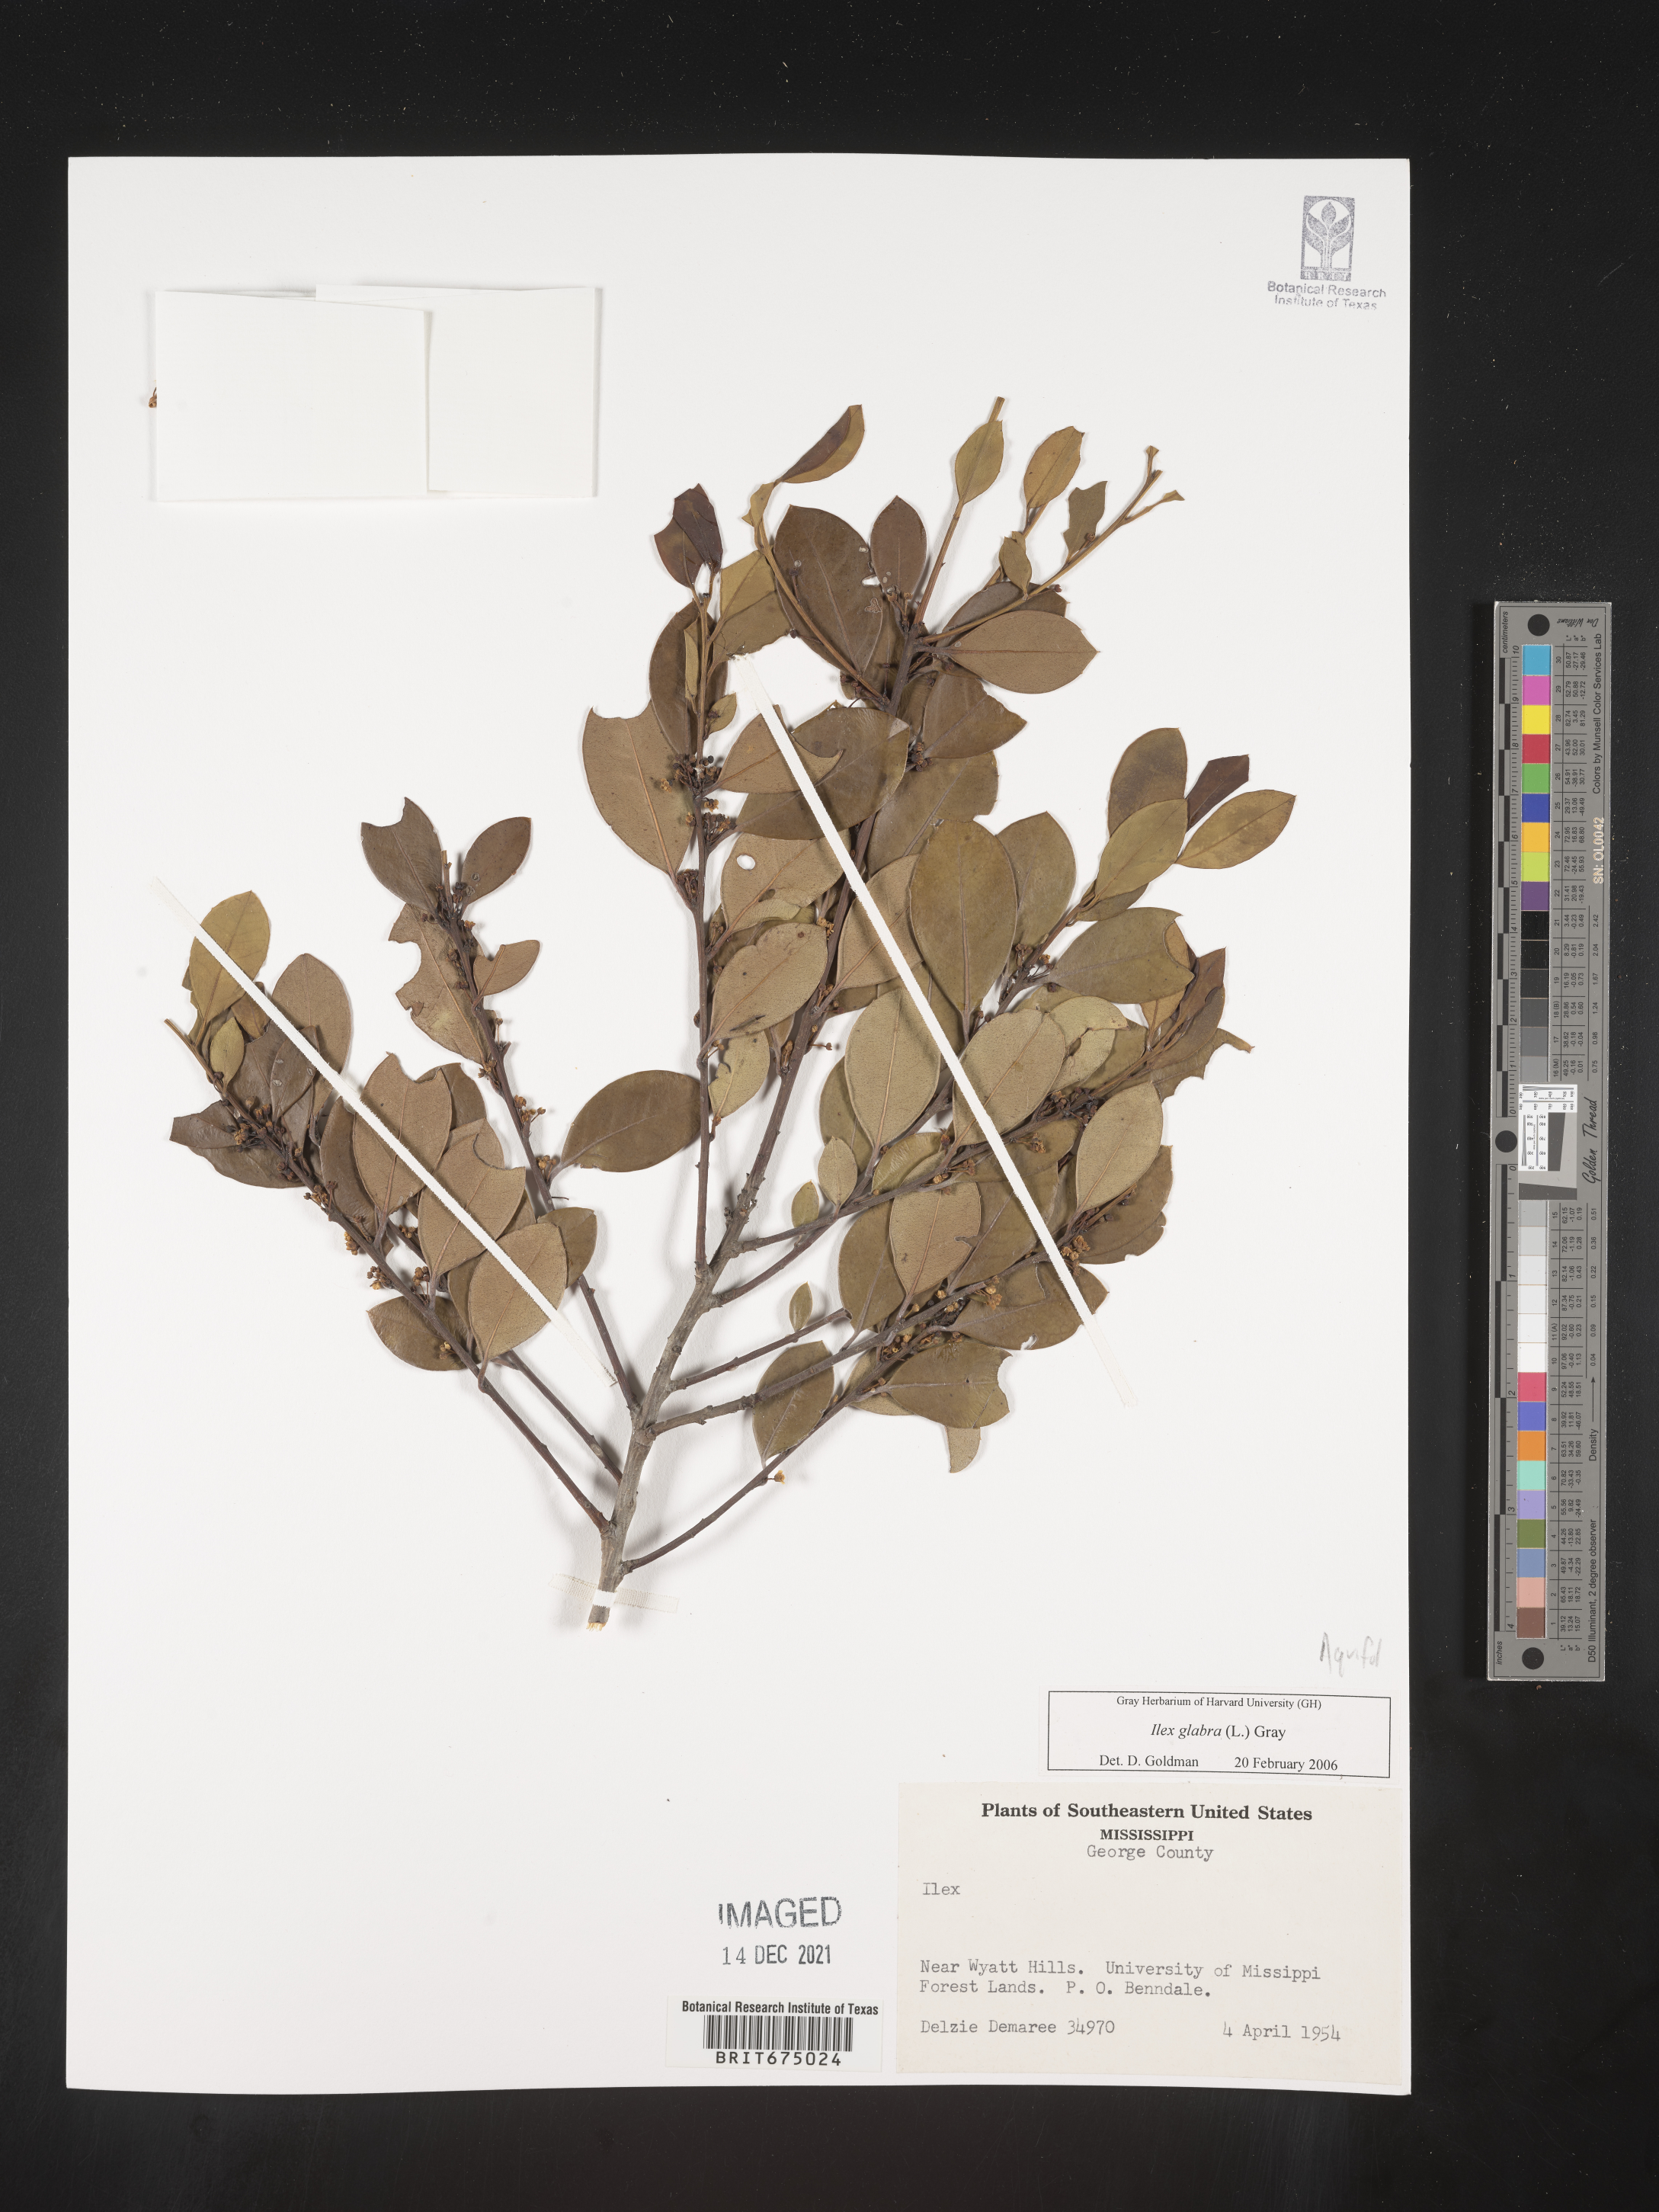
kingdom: Plantae
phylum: Tracheophyta
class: Magnoliopsida
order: Aquifoliales
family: Aquifoliaceae
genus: Ilex
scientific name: Ilex glabra
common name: Bitter gallberry
